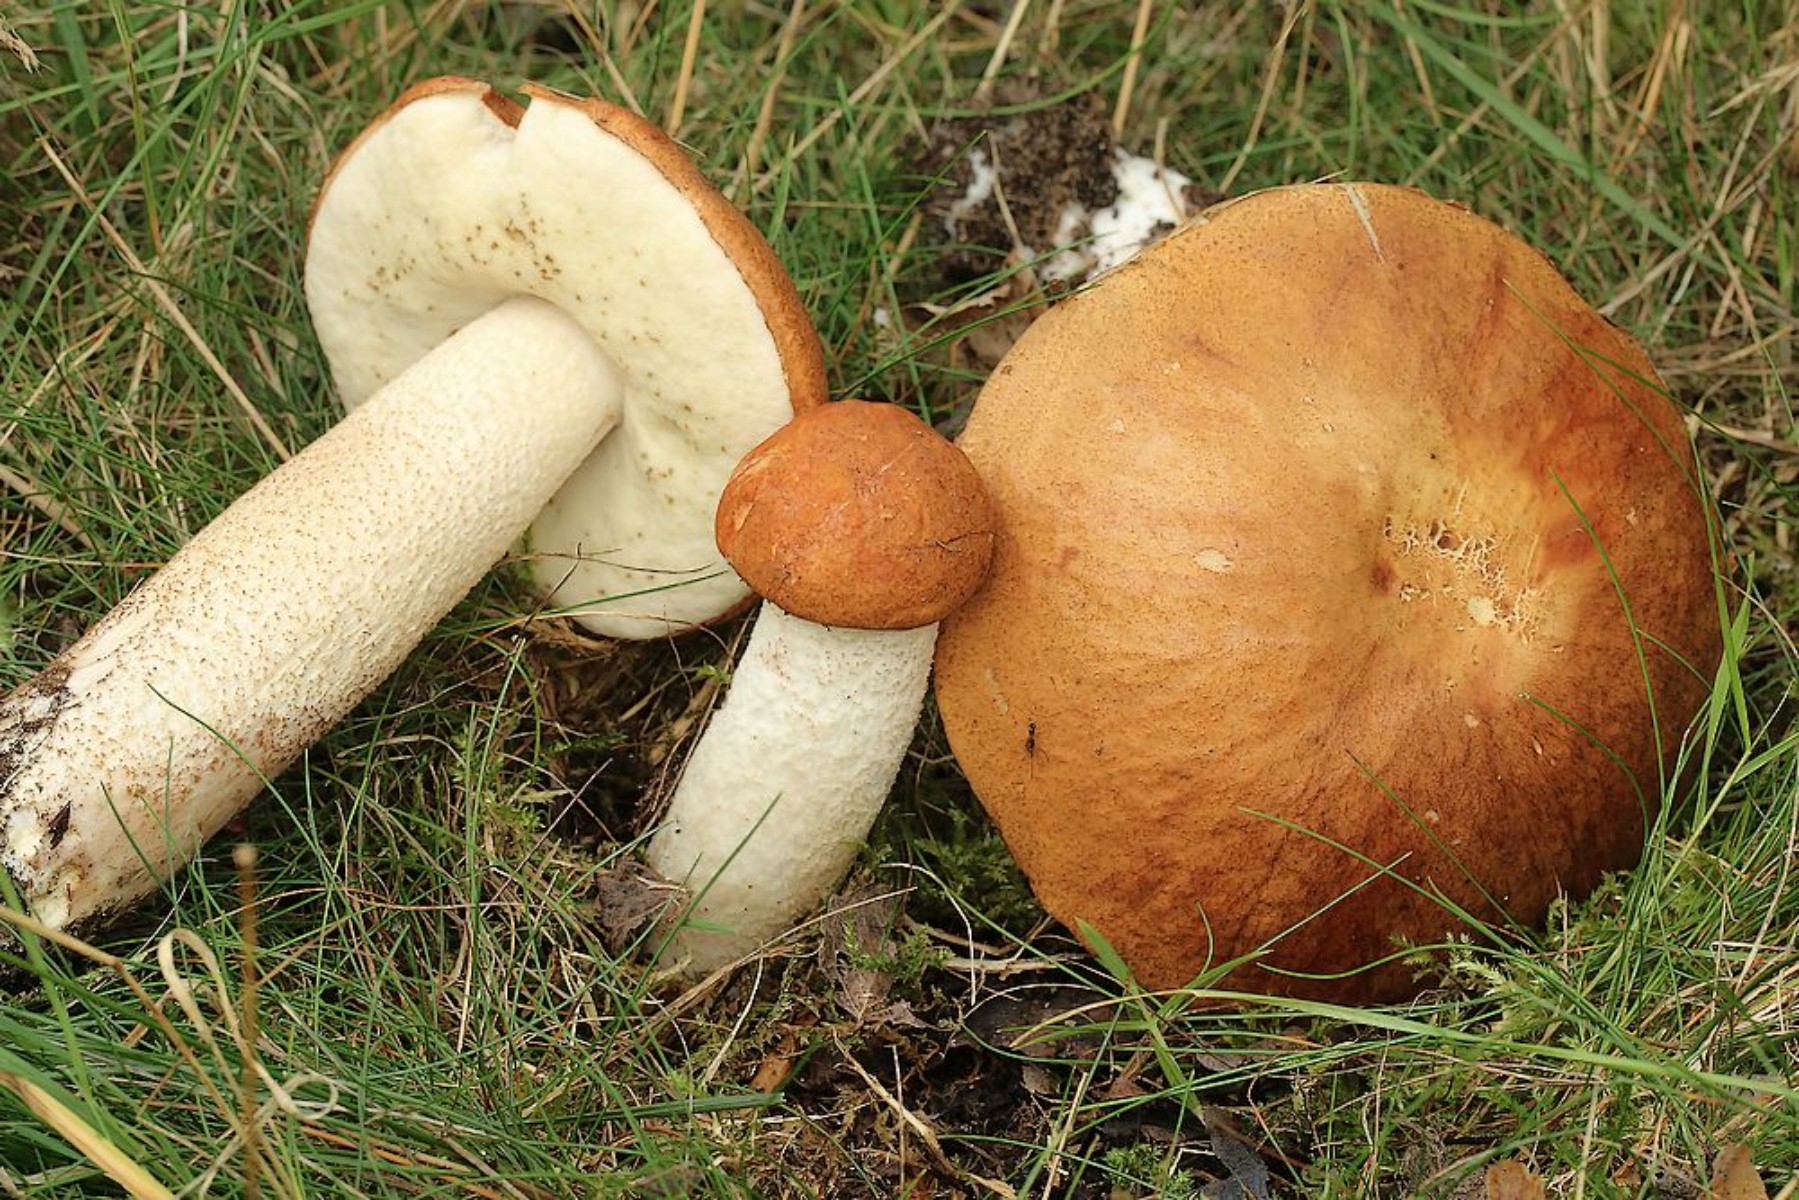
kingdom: Fungi
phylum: Basidiomycota
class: Agaricomycetes
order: Boletales
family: Boletaceae
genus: Leccinum
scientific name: Leccinum albostipitatum
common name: aspe-skælrørhat
